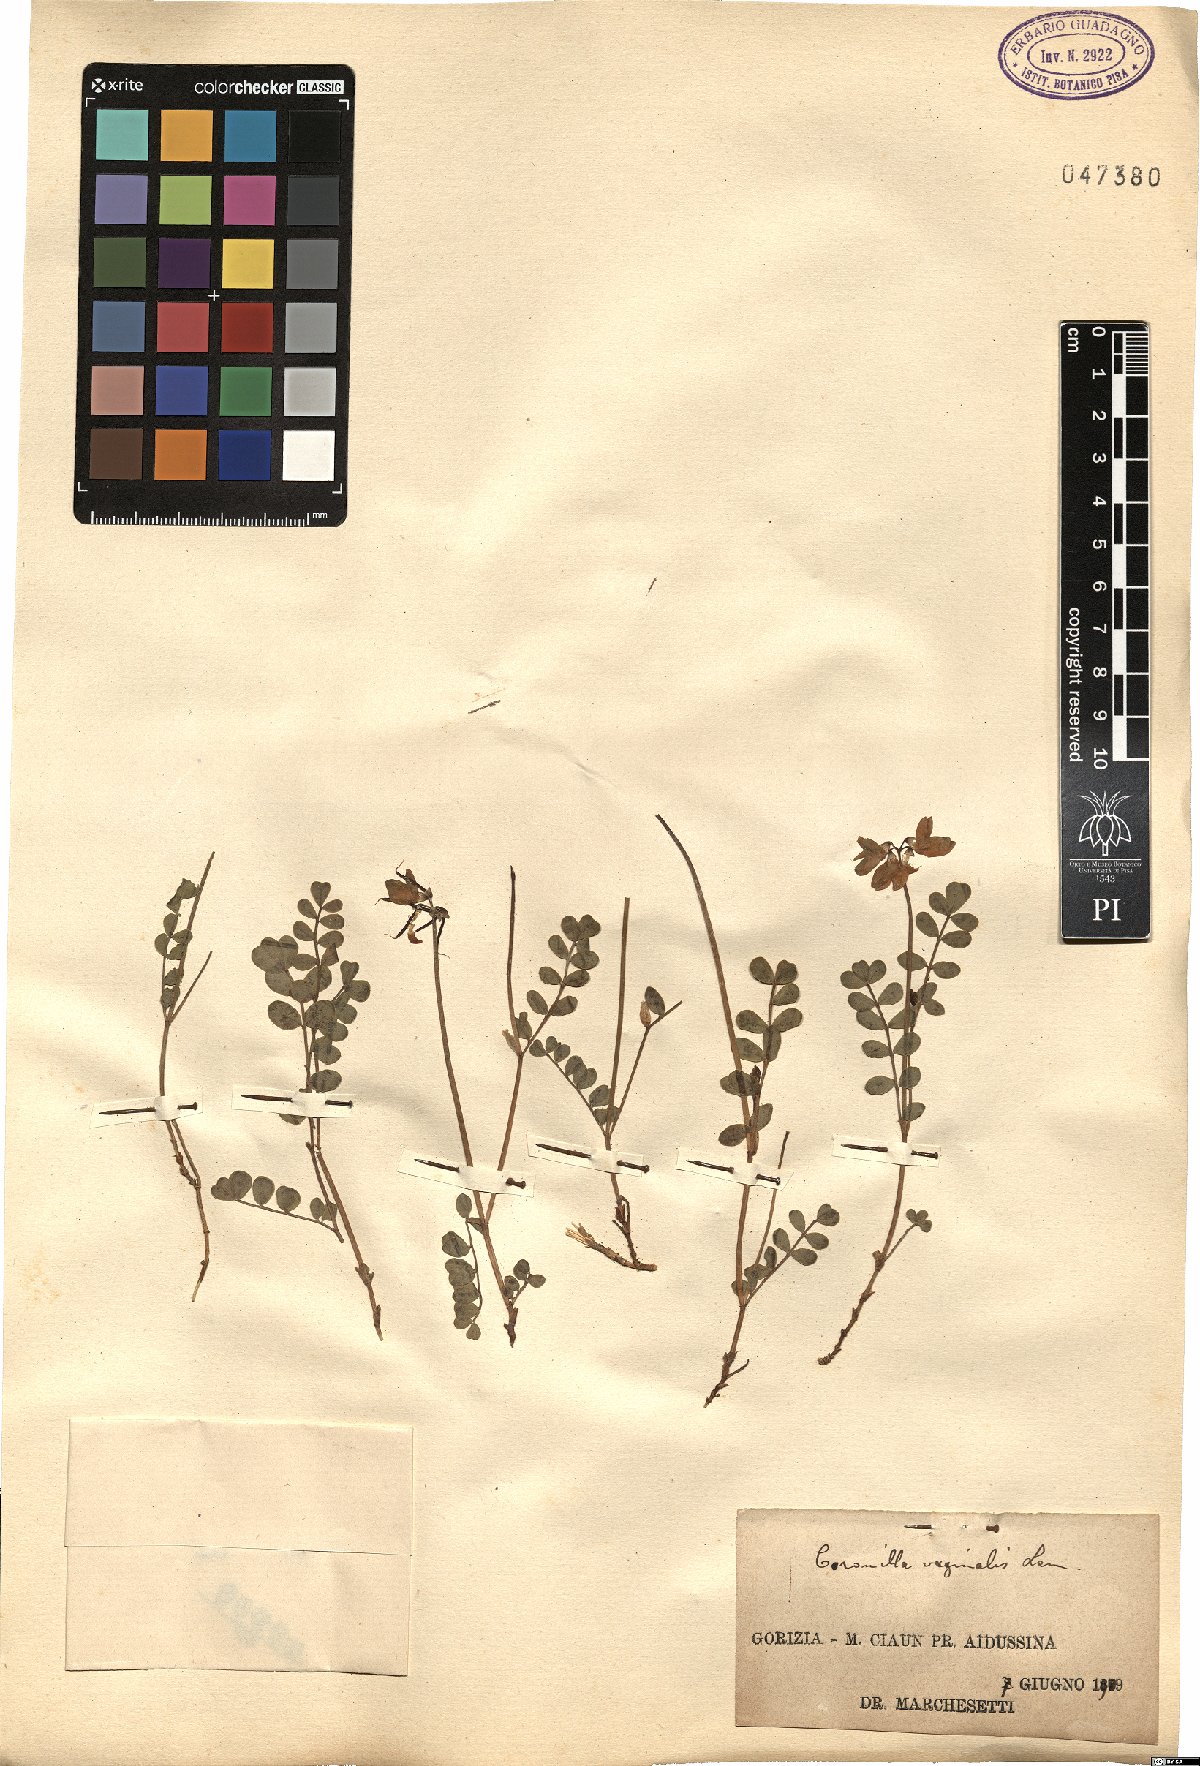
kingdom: Plantae
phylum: Tracheophyta
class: Magnoliopsida
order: Fabales
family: Fabaceae
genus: Coronilla
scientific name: Coronilla vaginalis
